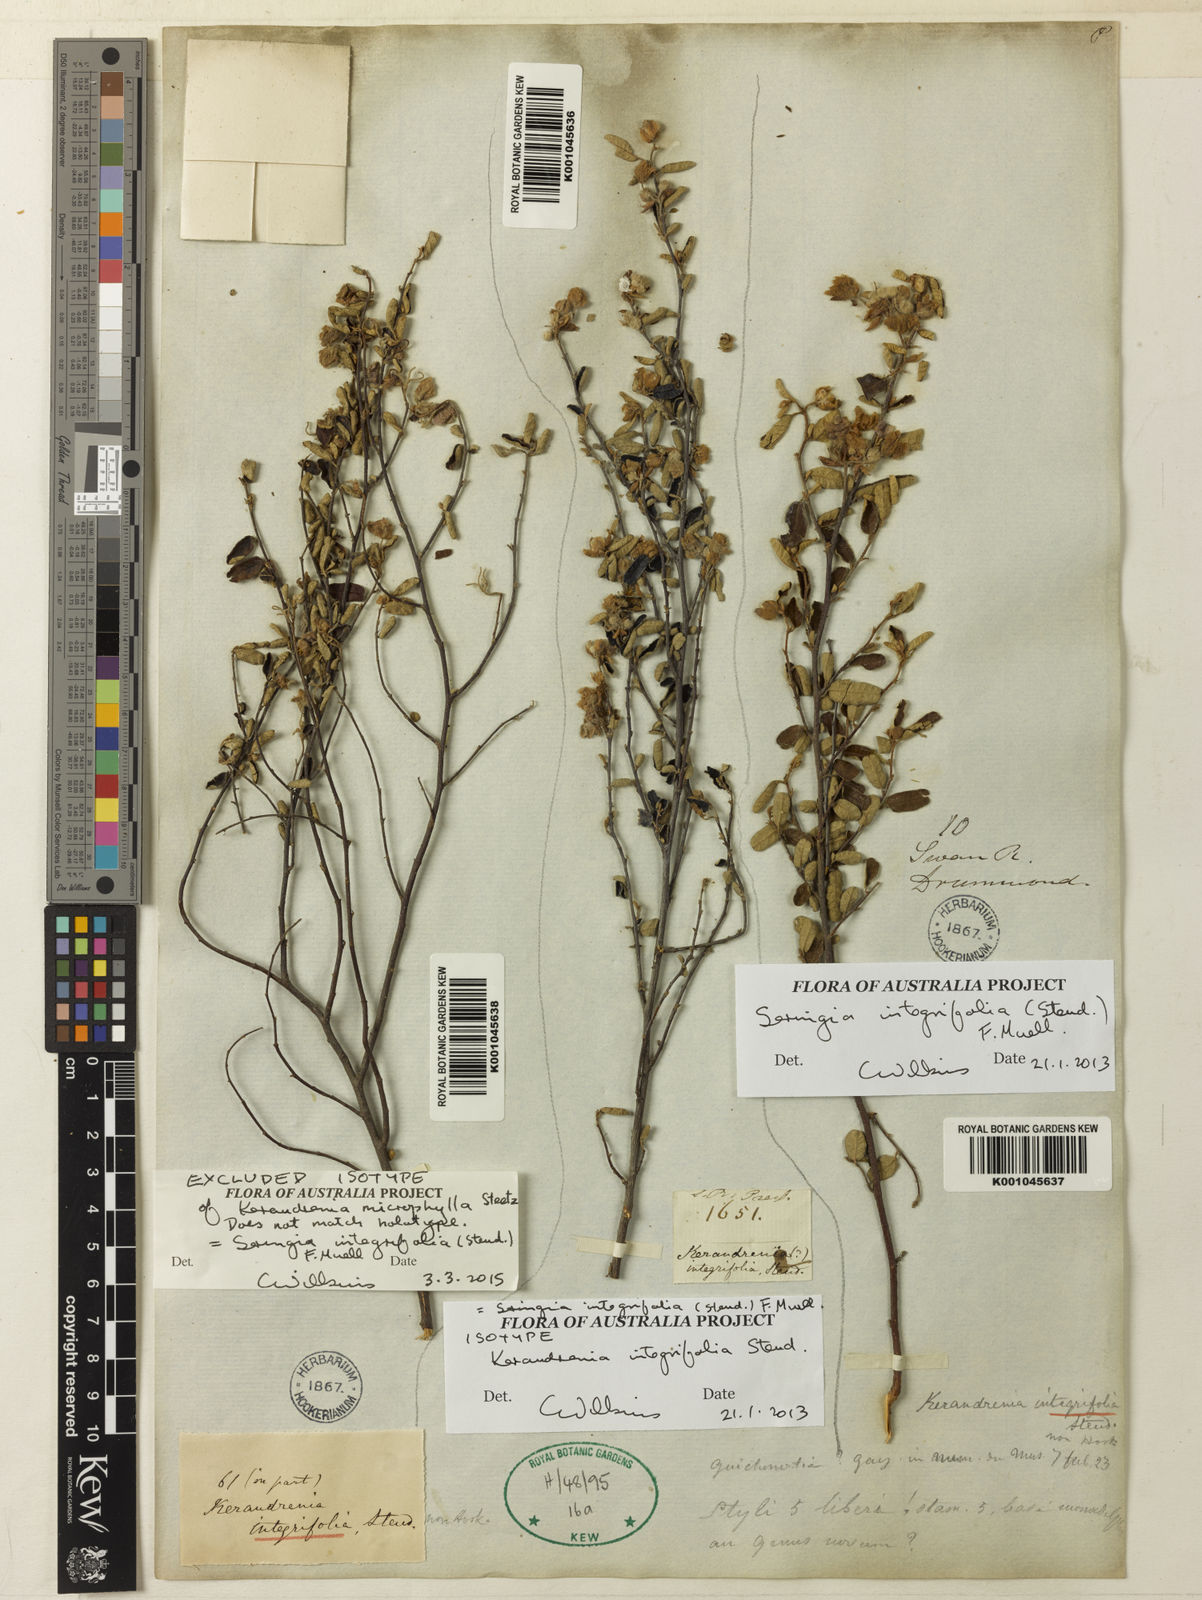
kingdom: Plantae
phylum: Tracheophyta
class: Magnoliopsida
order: Malvales
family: Malvaceae
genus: Seringia
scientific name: Seringia integrifolia
